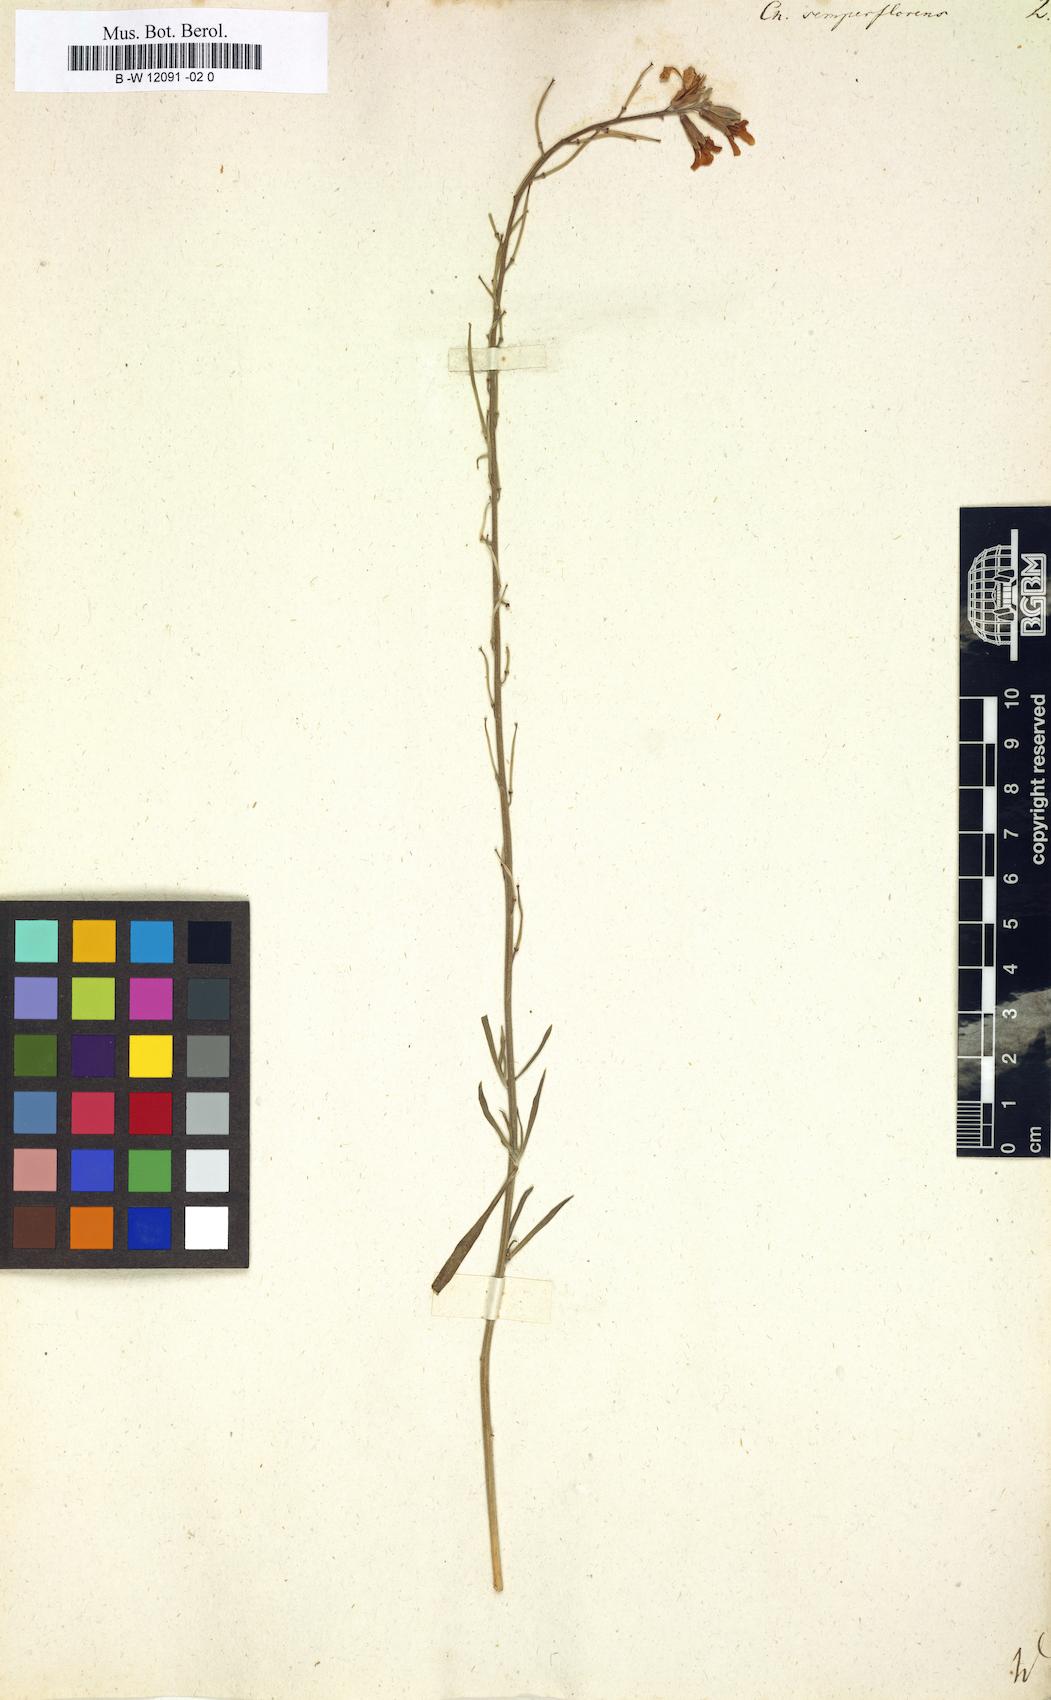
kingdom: Plantae
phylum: Tracheophyta
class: Magnoliopsida
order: Brassicales
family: Brassicaceae
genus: Erysimum
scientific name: Erysimum
